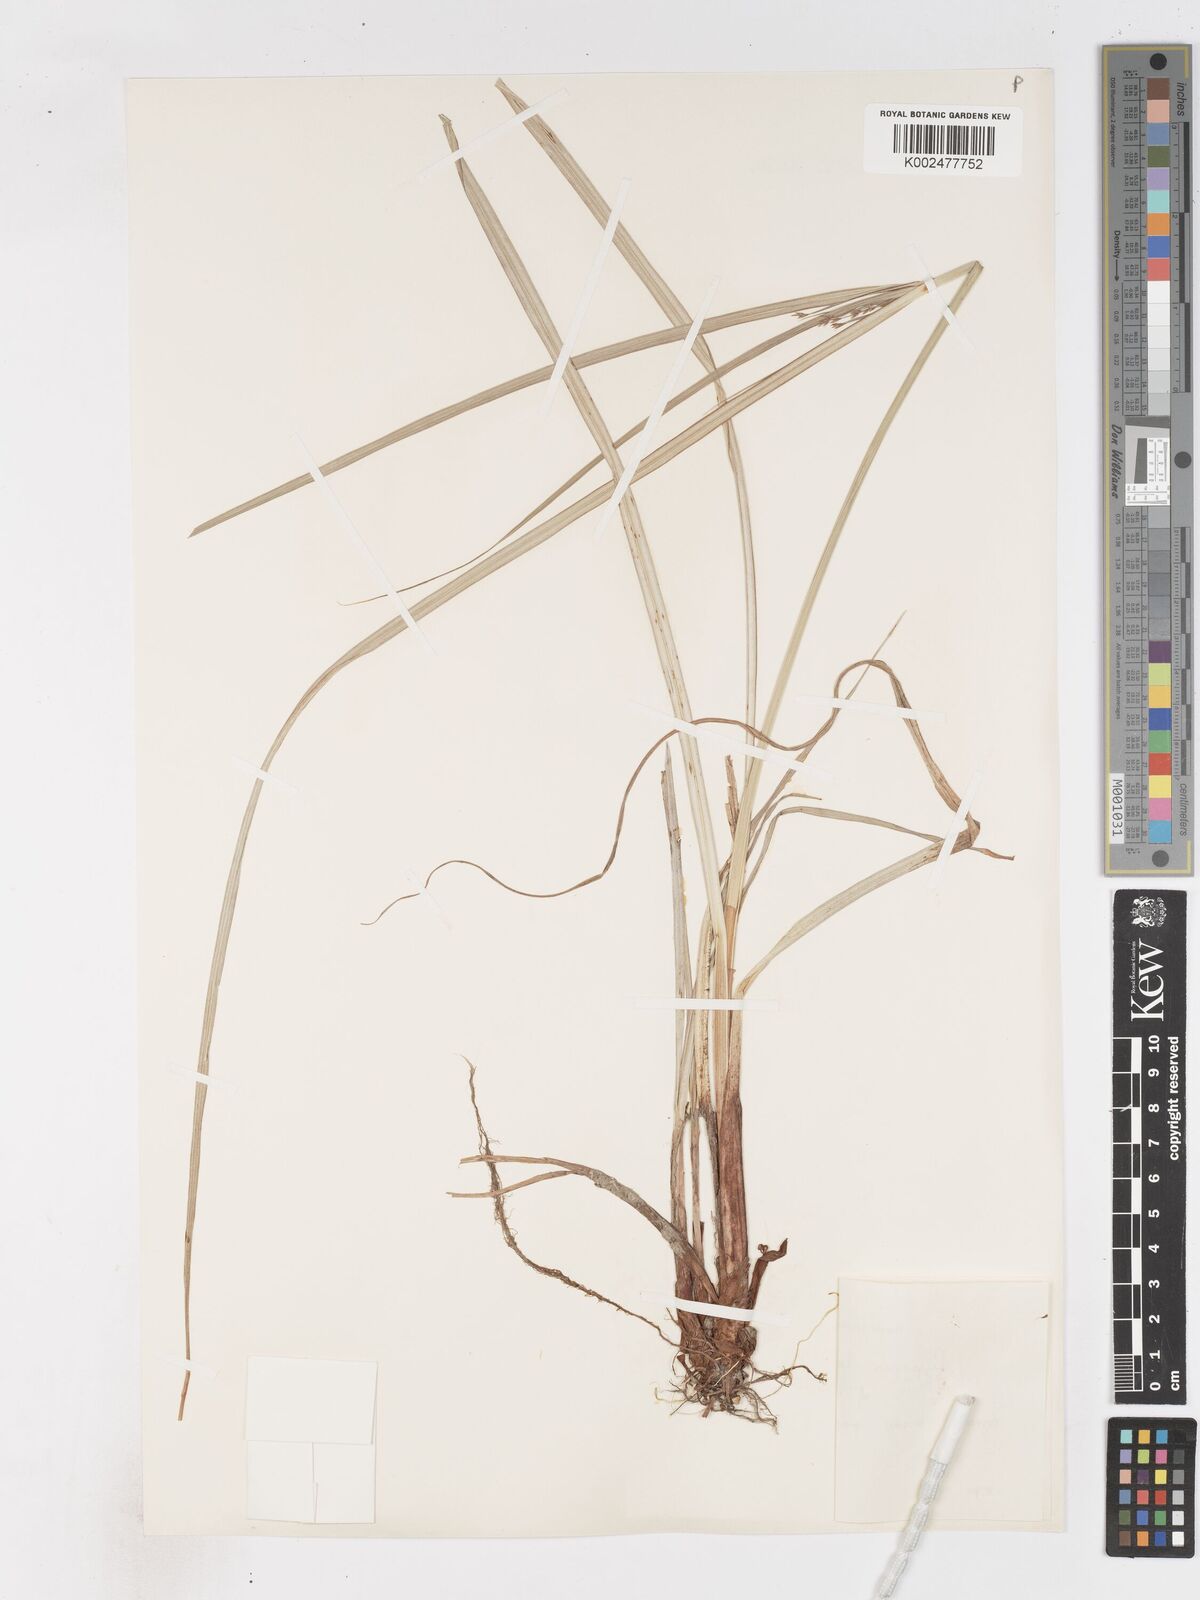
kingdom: Plantae
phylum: Tracheophyta
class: Liliopsida
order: Poales
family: Cyperaceae
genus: Cyperus
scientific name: Cyperus longus
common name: Galingale
